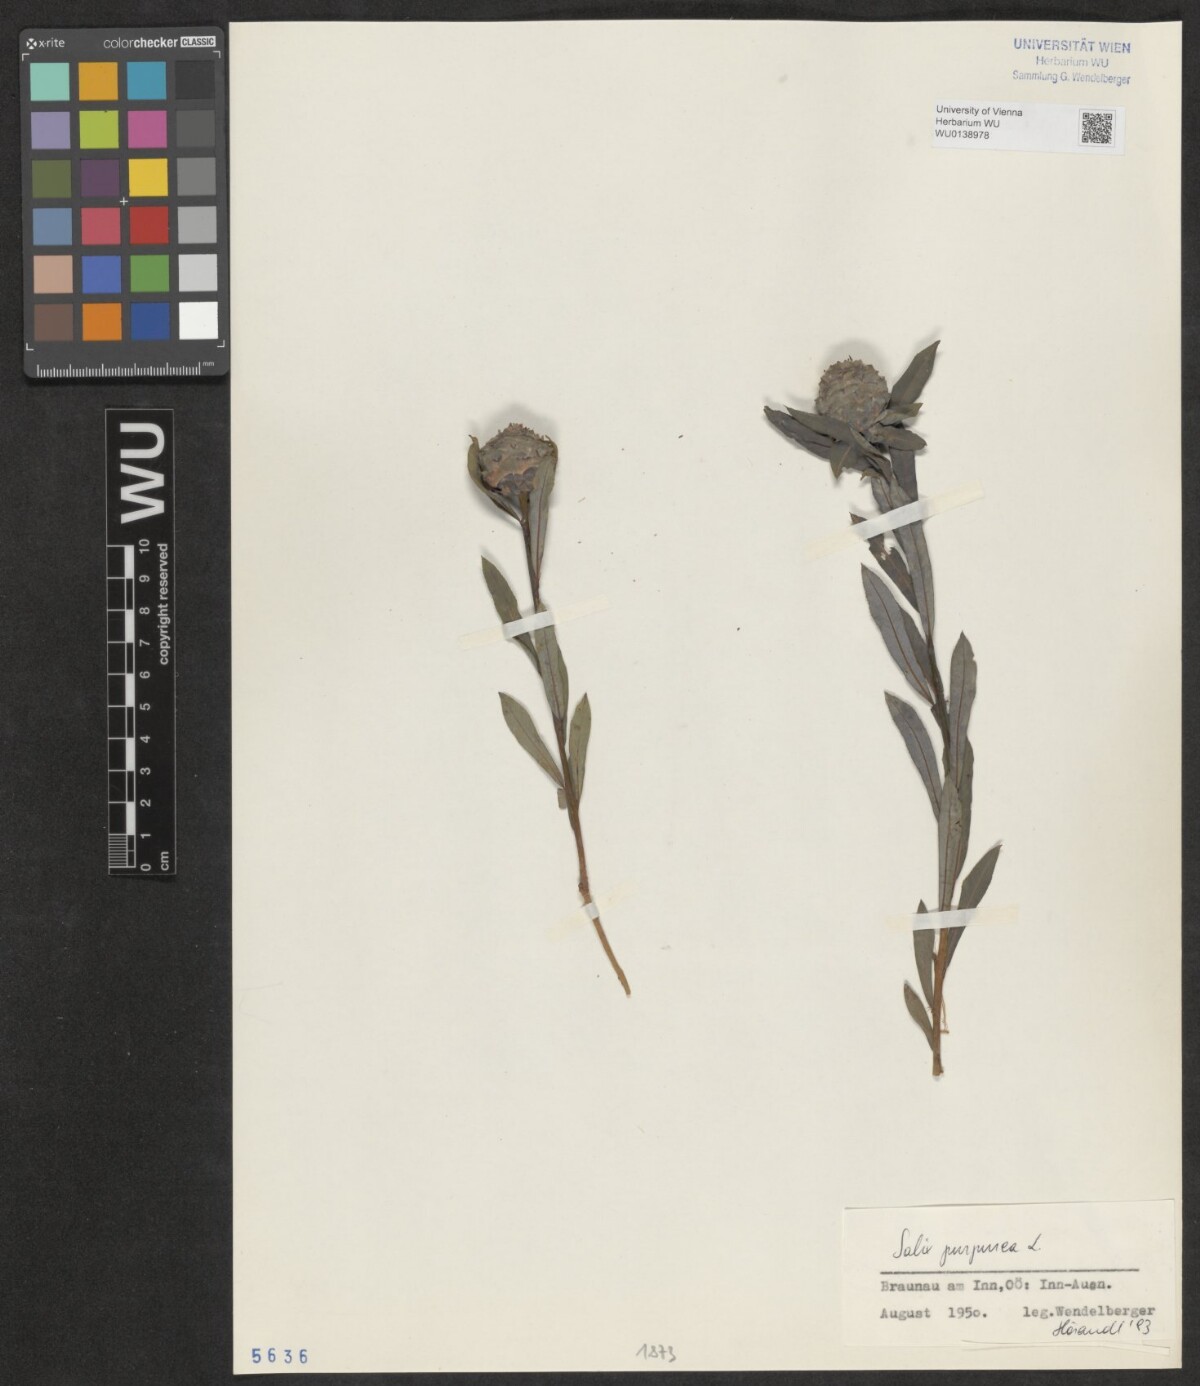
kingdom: Plantae
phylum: Tracheophyta
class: Magnoliopsida
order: Malpighiales
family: Salicaceae
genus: Salix
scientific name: Salix purpurea
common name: Purple willow
